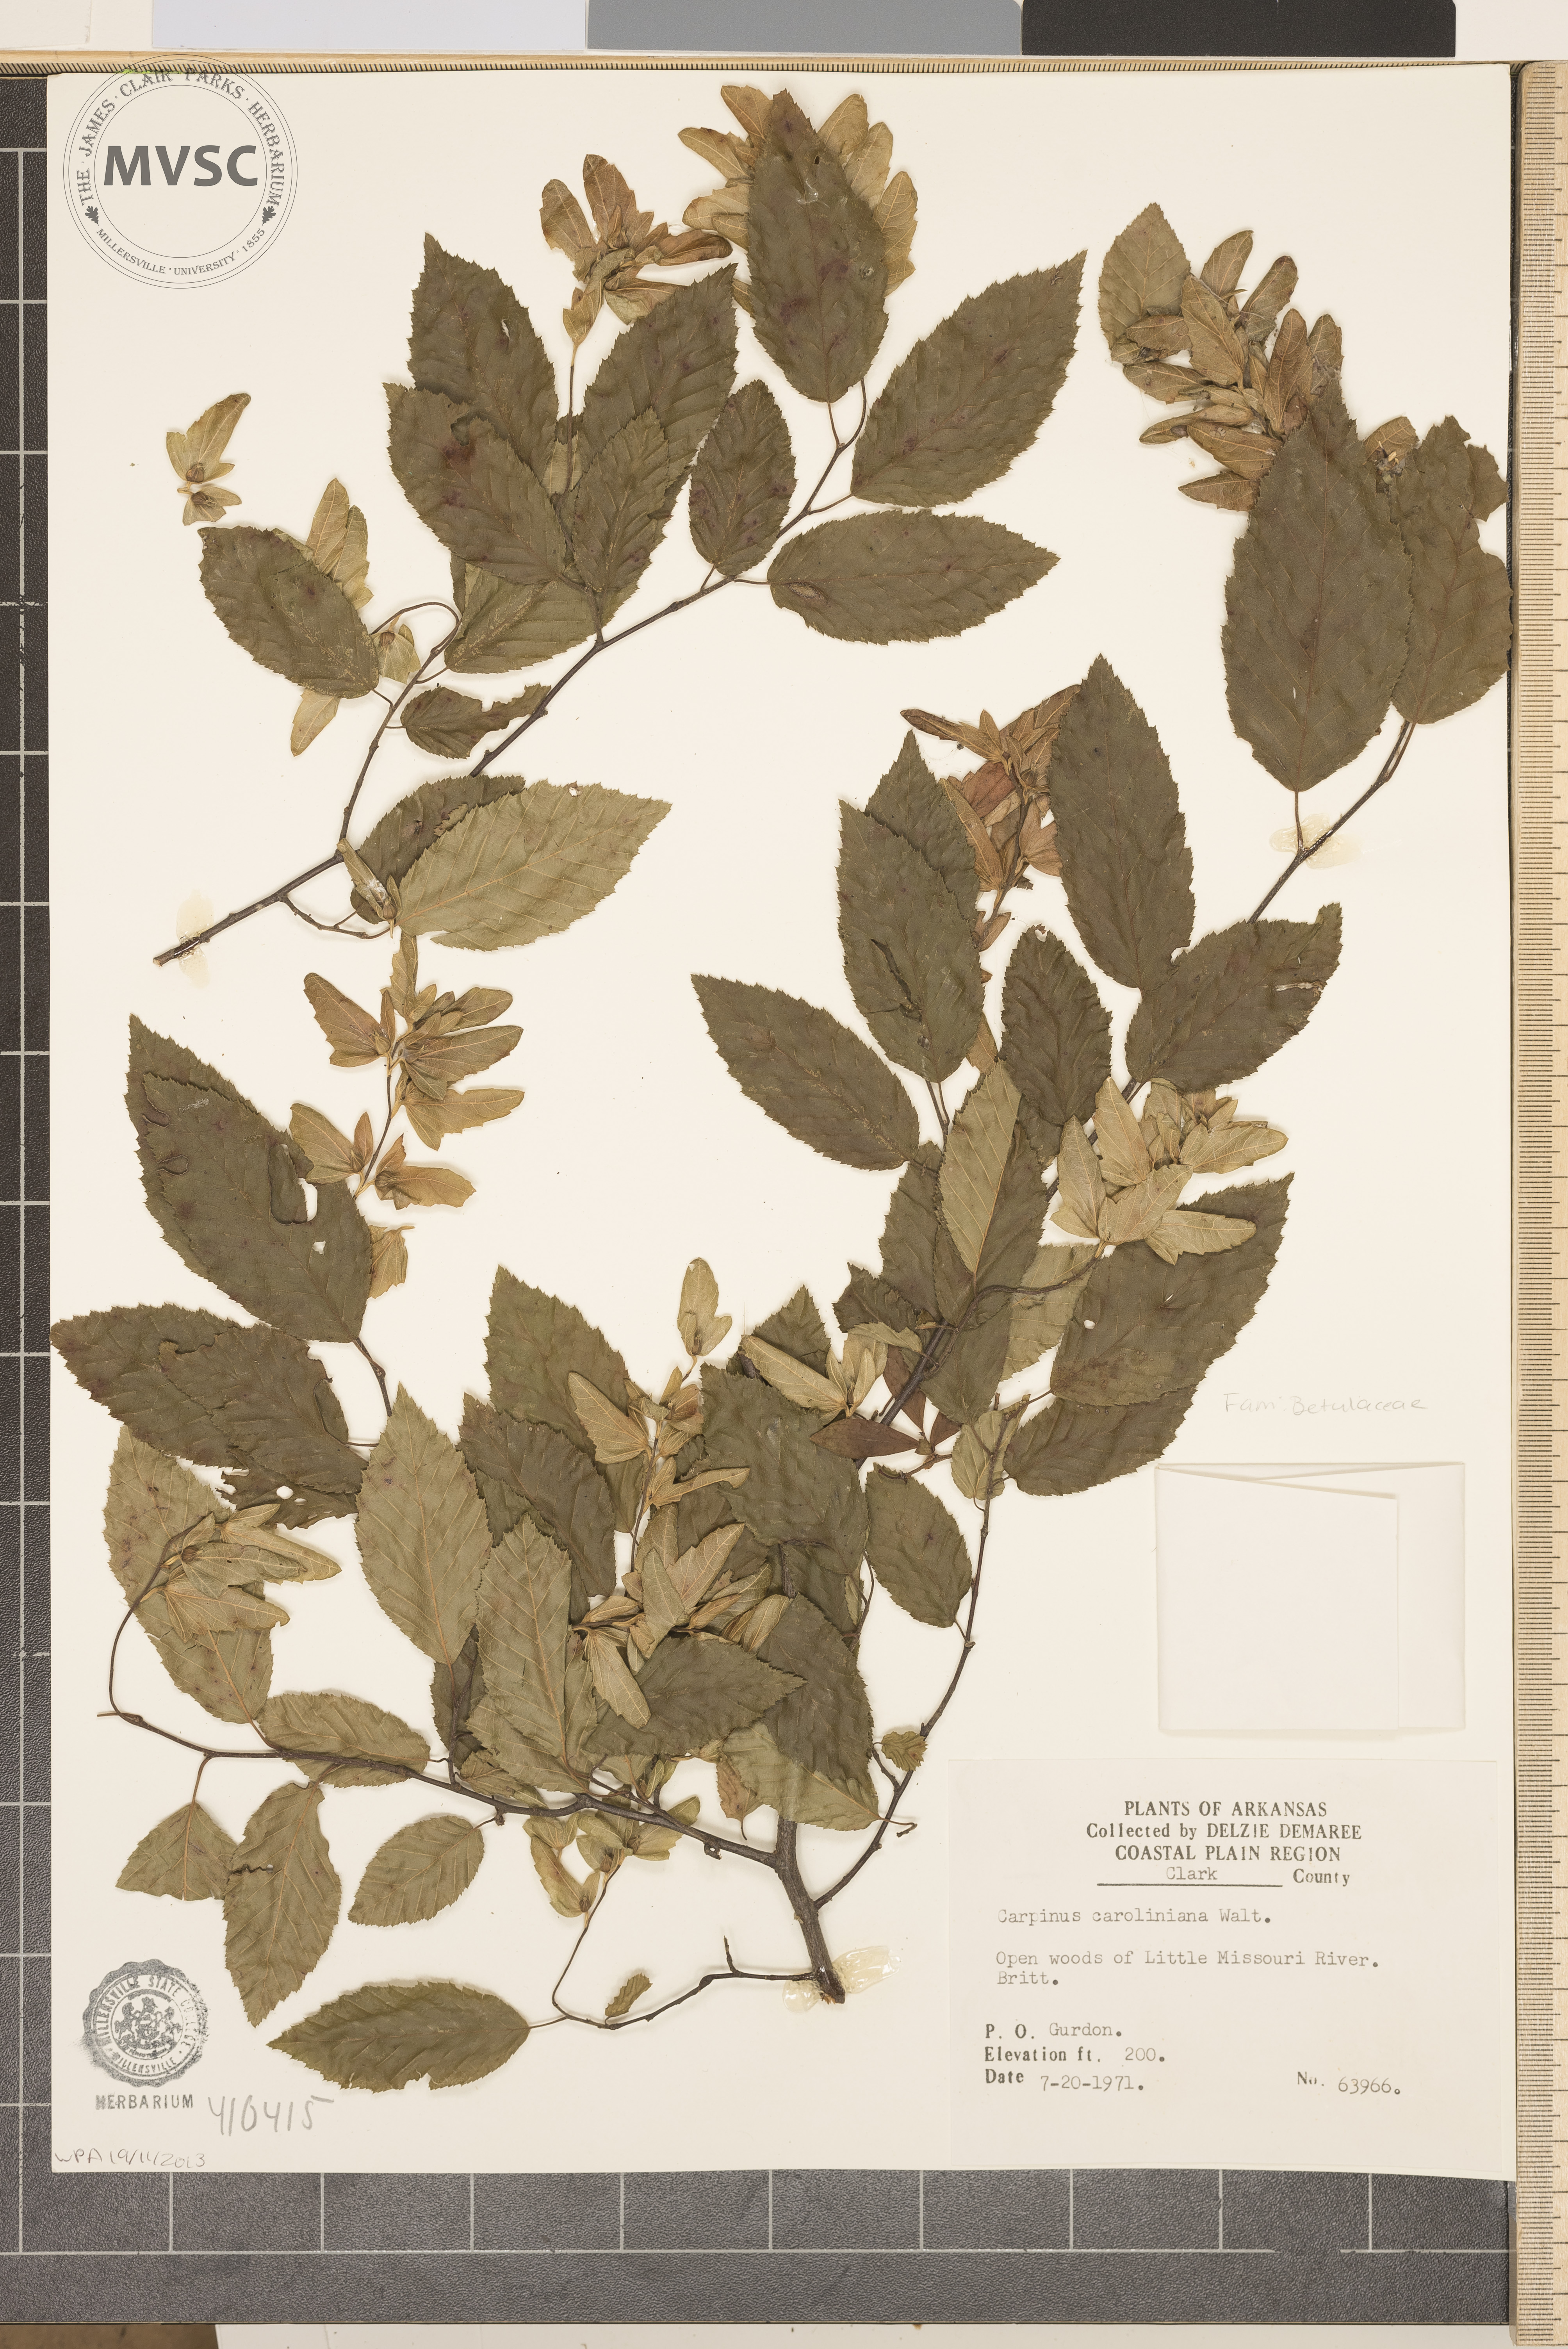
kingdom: Plantae
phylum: Tracheophyta
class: Magnoliopsida
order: Fagales
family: Betulaceae
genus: Carpinus
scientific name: Carpinus caroliniana
